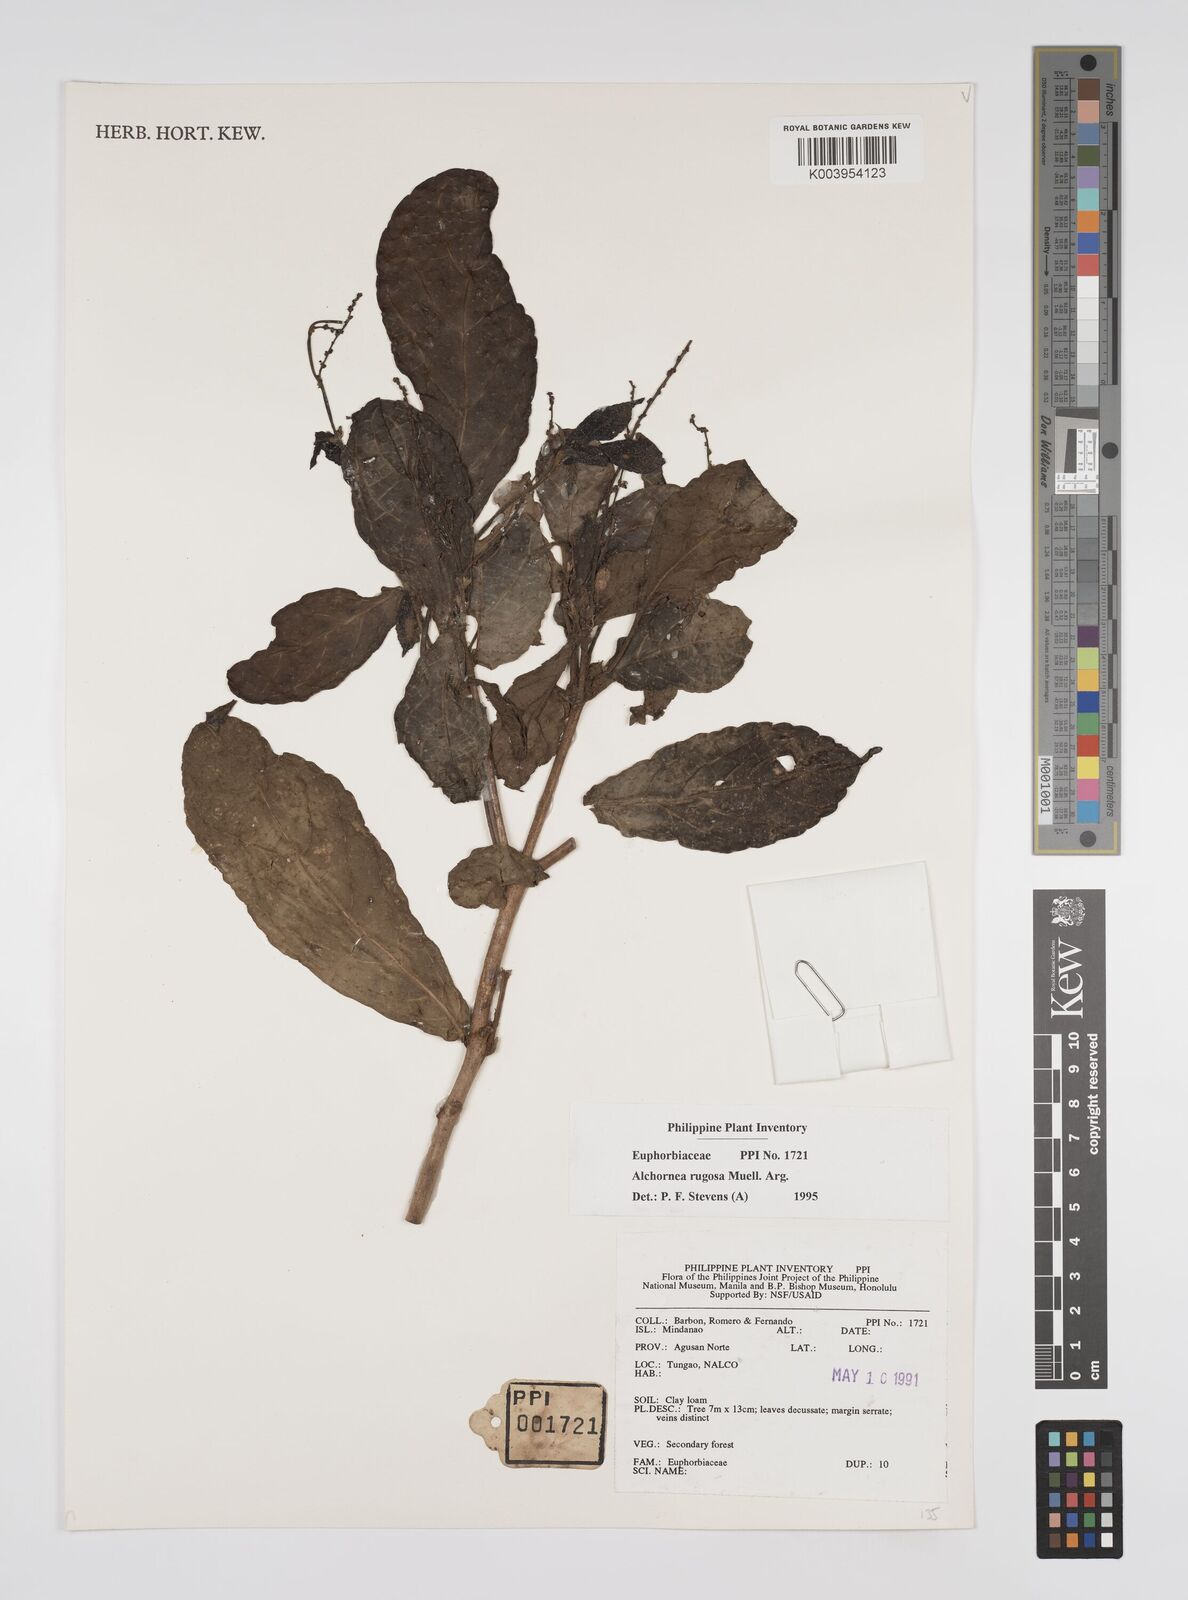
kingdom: Plantae
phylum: Tracheophyta
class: Magnoliopsida
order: Malpighiales
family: Euphorbiaceae
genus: Alchornea
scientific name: Alchornea rugosa
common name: Alchorntree
